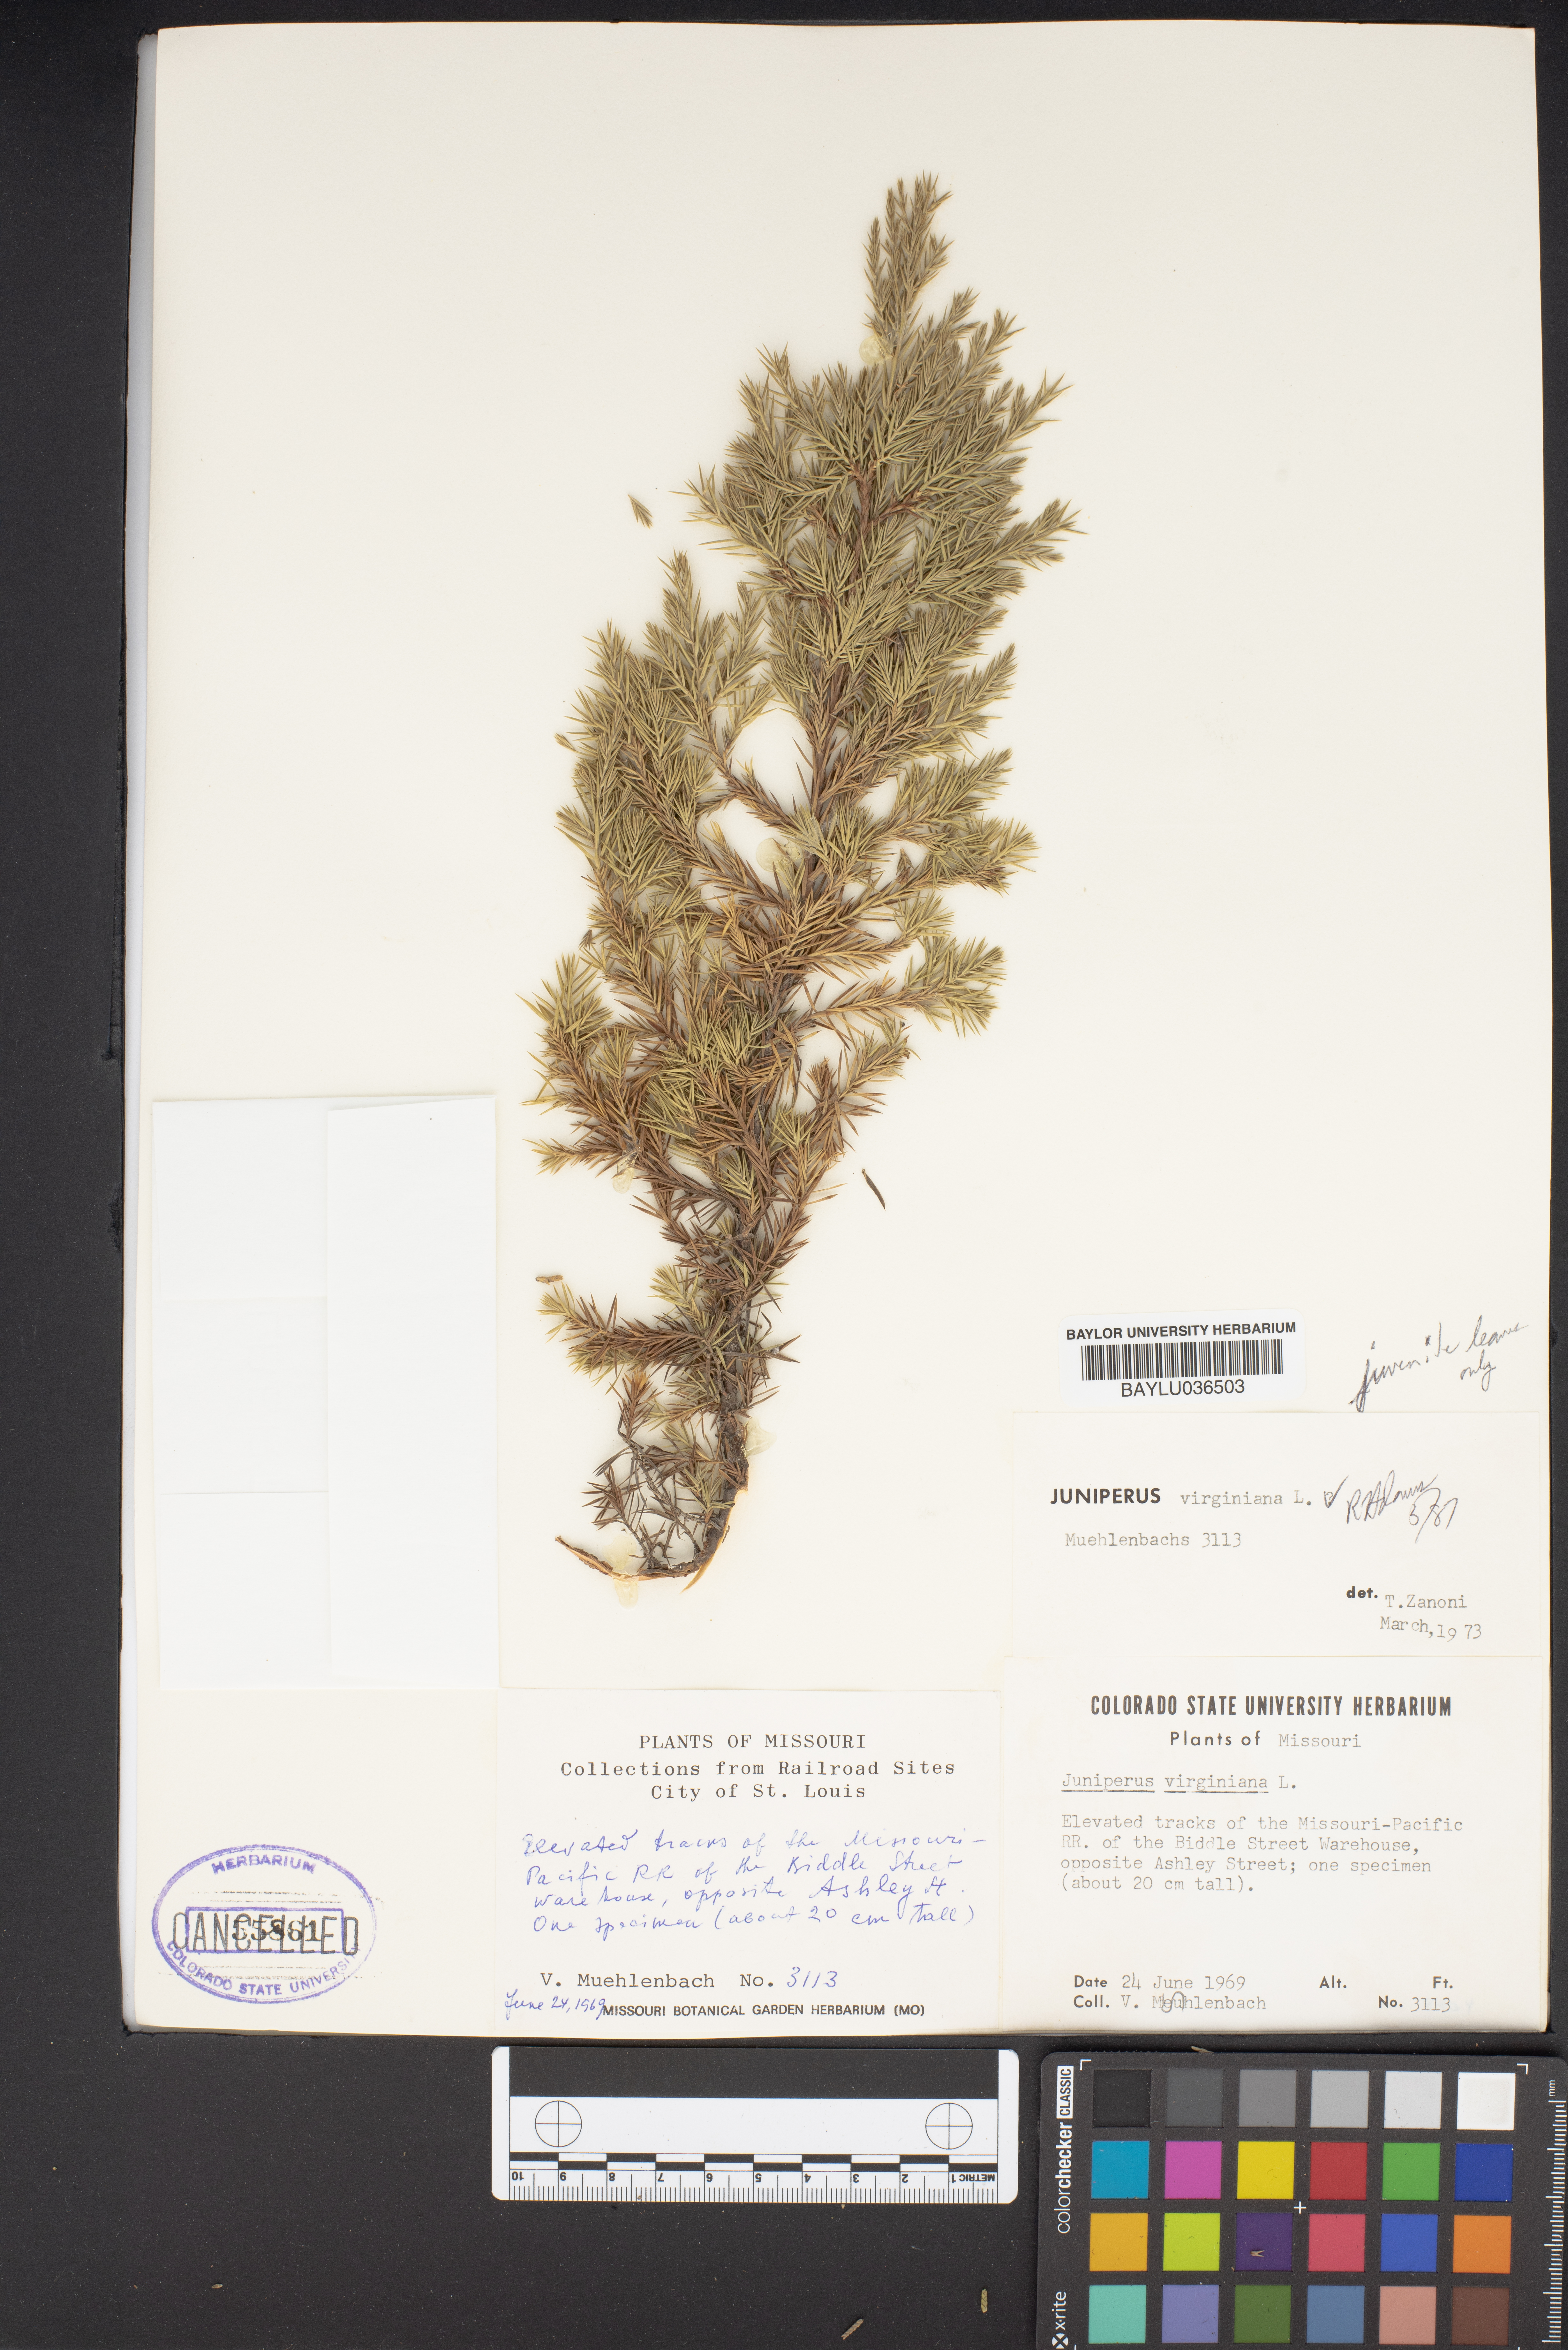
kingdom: Plantae
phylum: Tracheophyta
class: Pinopsida
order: Pinales
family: Cupressaceae
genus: Juniperus
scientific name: Juniperus virginiana
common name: Red juniper
